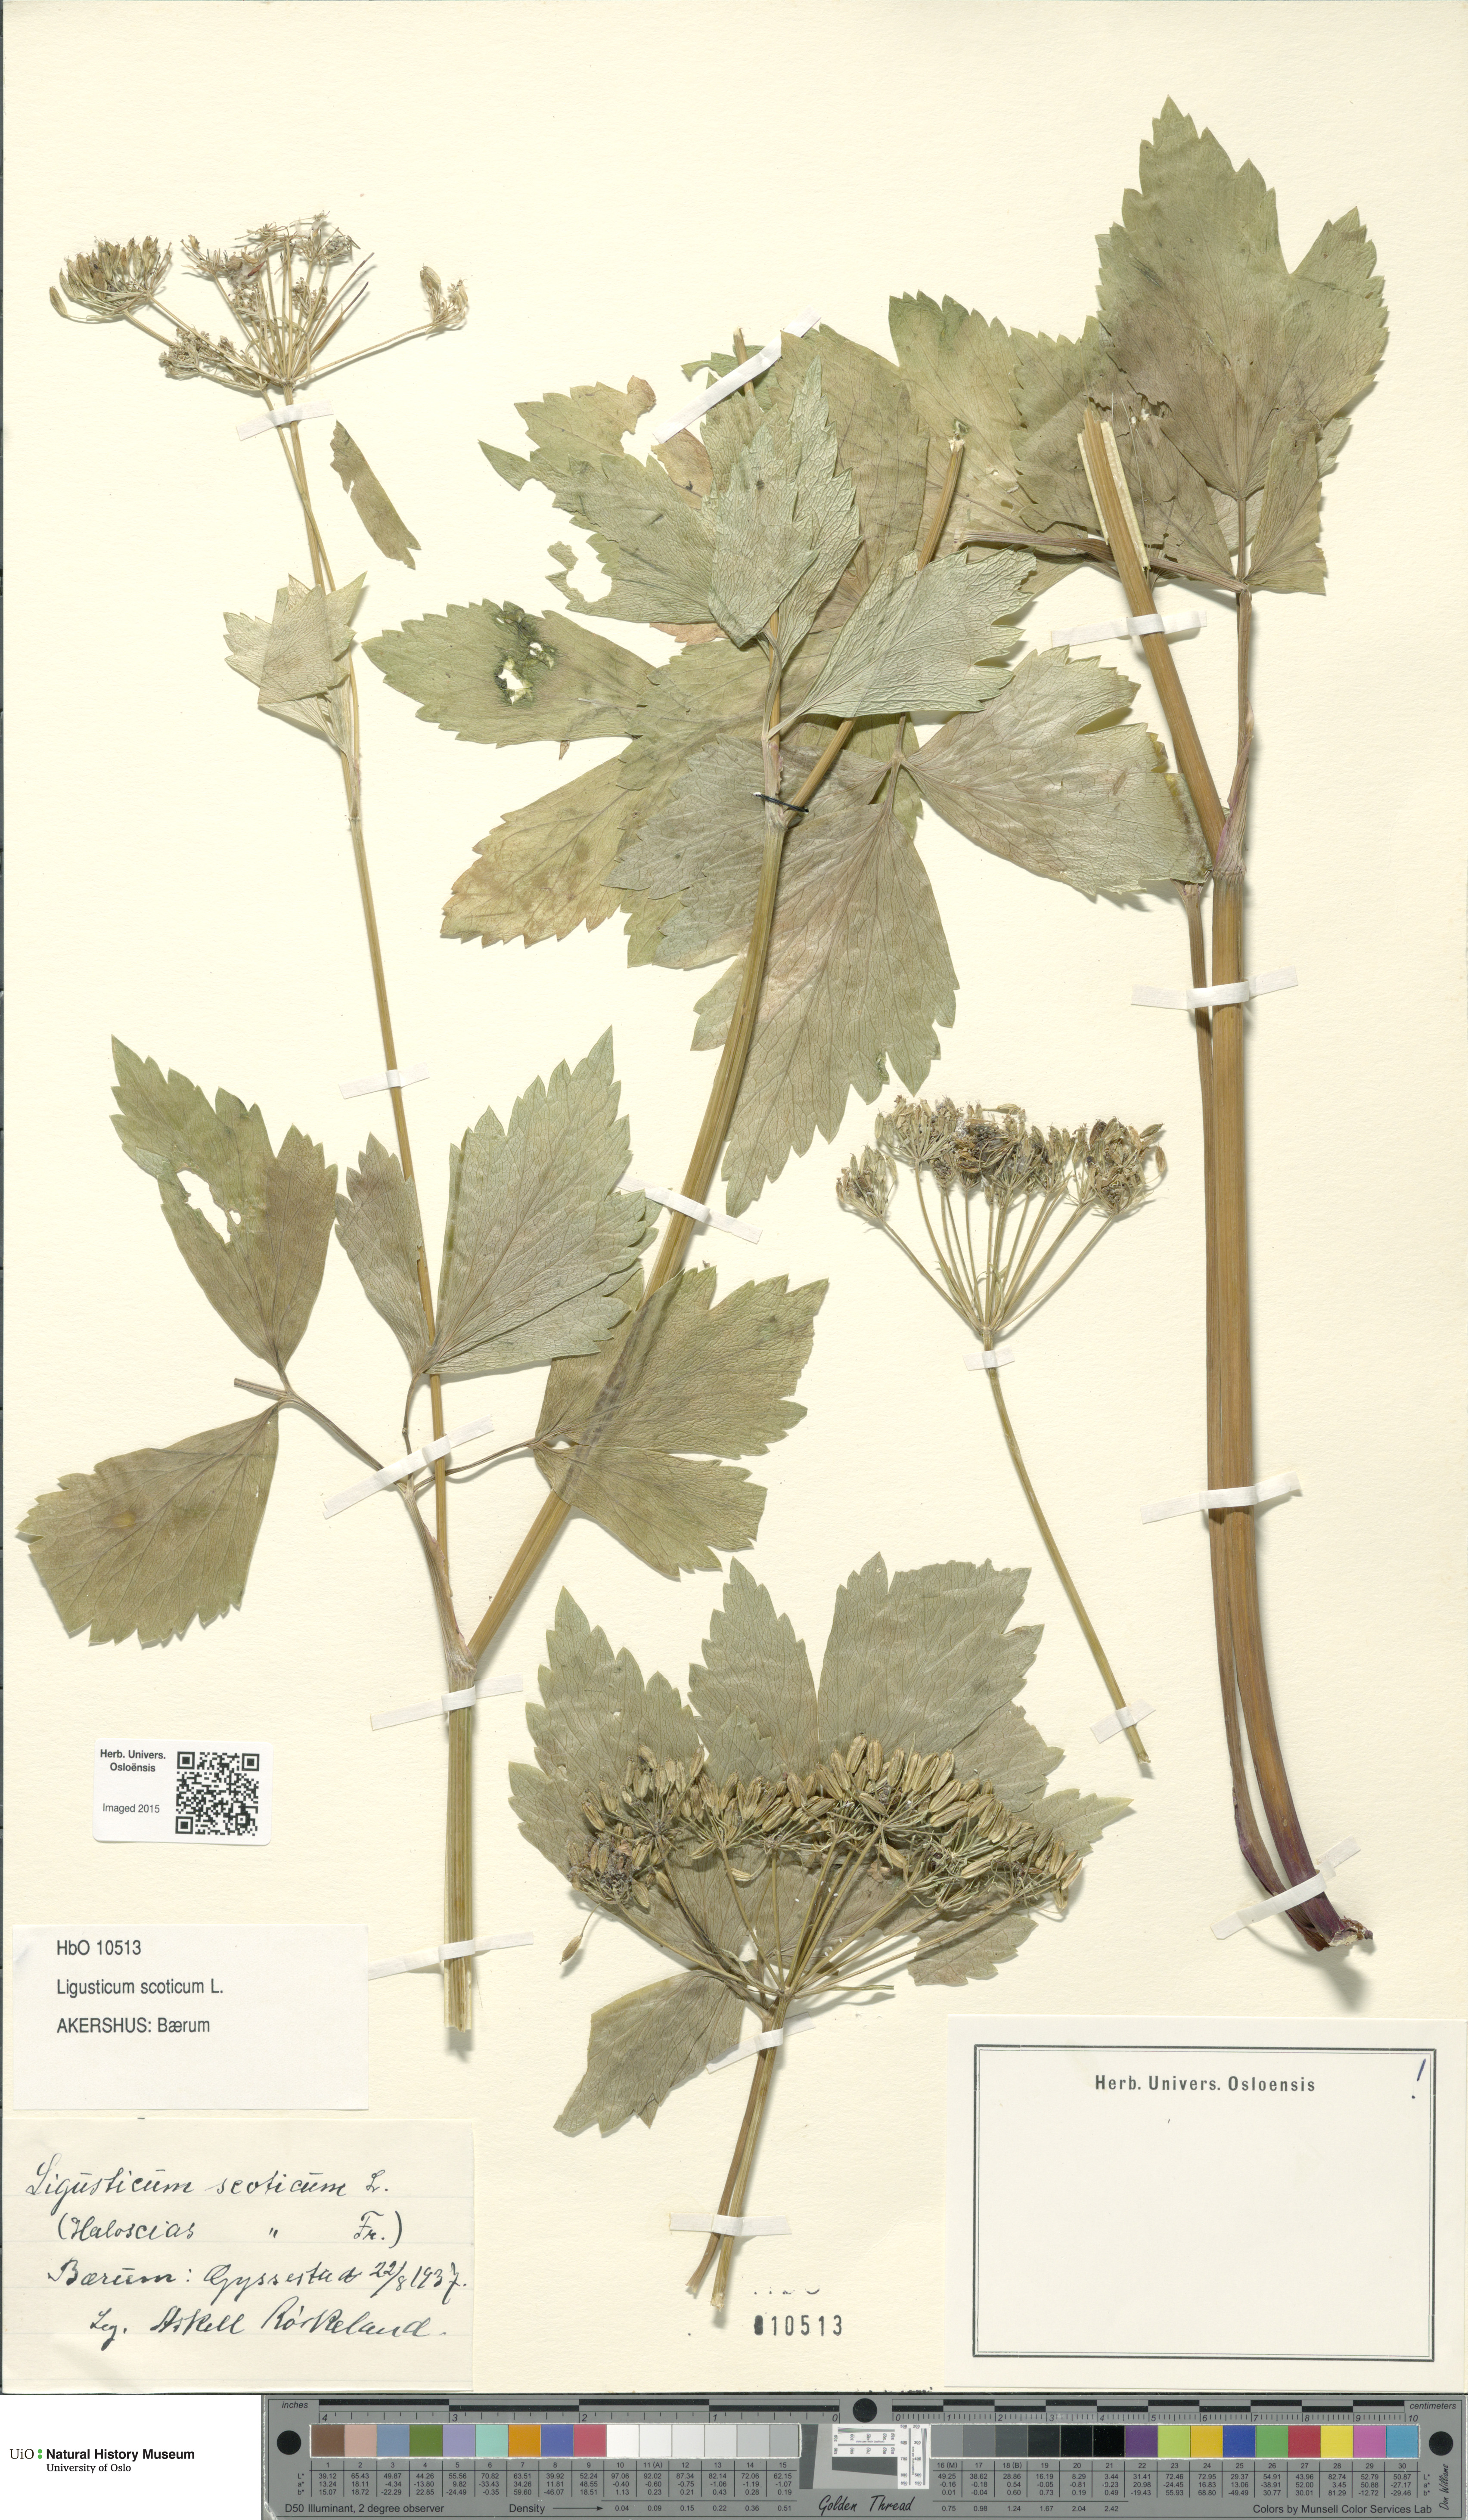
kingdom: Plantae
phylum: Tracheophyta
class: Magnoliopsida
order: Apiales
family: Apiaceae
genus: Ligusticum
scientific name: Ligusticum scothicum
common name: Beach lovage
